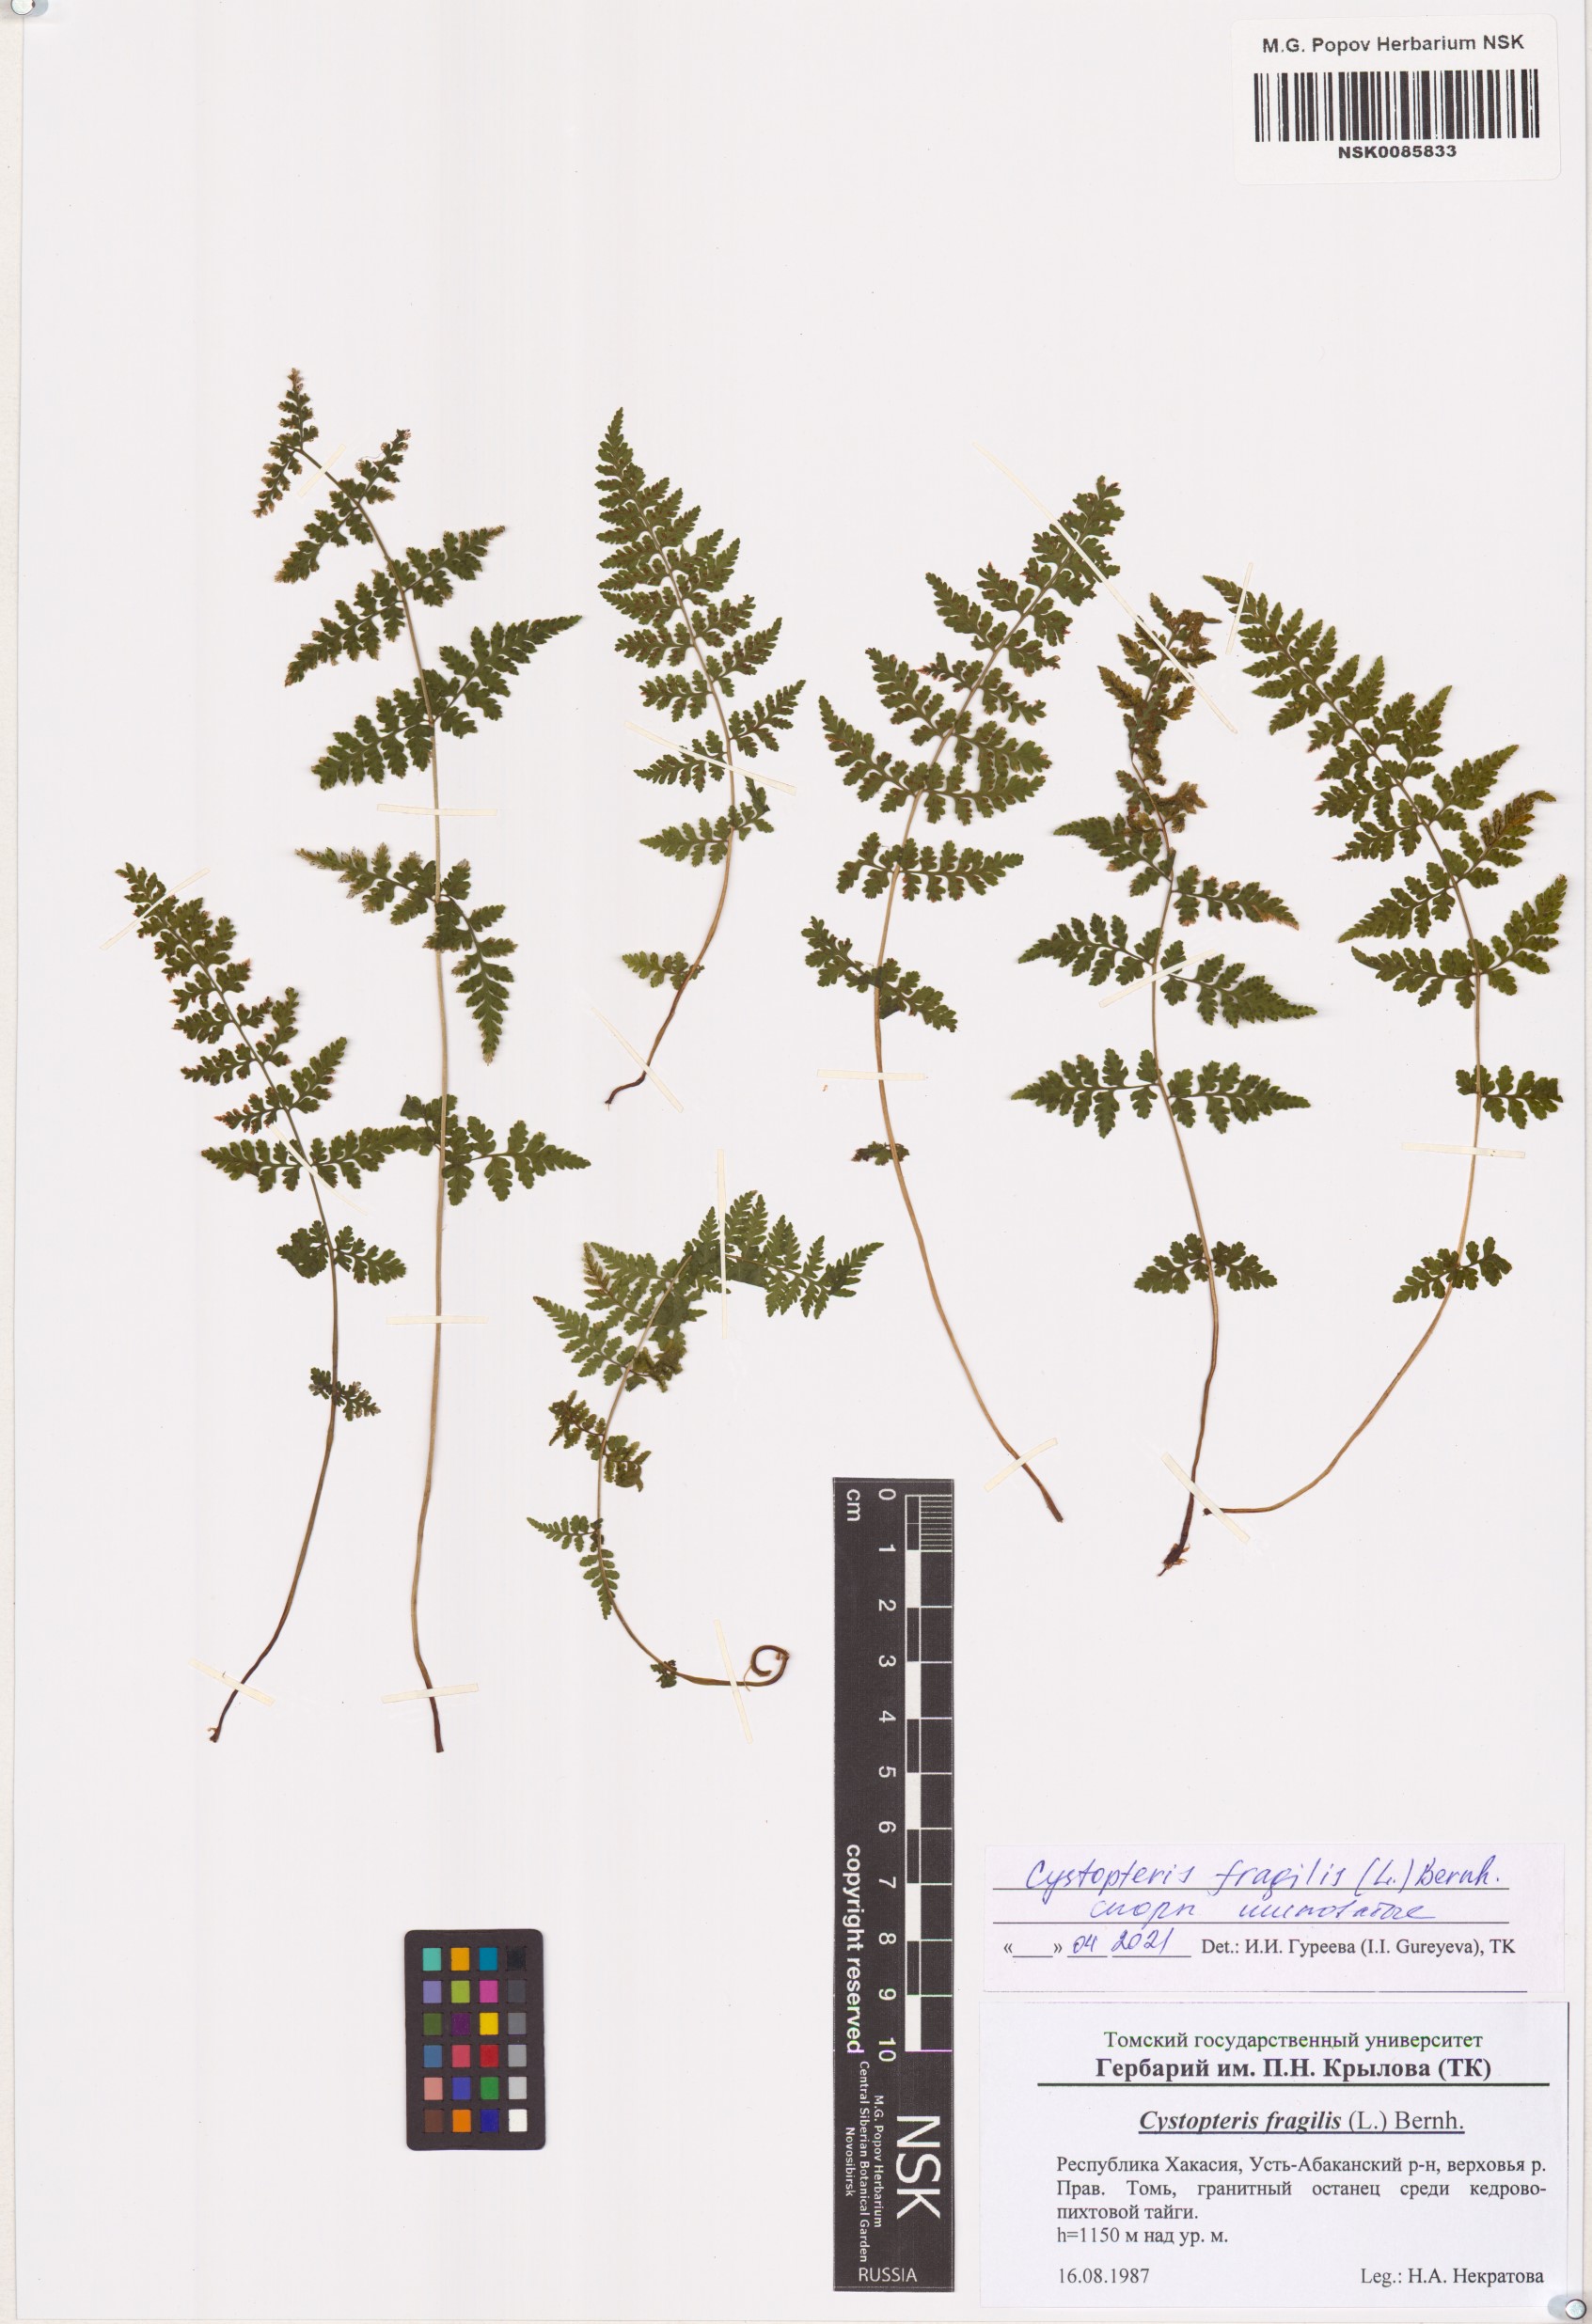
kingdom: Plantae
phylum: Tracheophyta
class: Polypodiopsida
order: Polypodiales
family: Cystopteridaceae
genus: Cystopteris
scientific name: Cystopteris fragilis
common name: Brittle bladder fern
